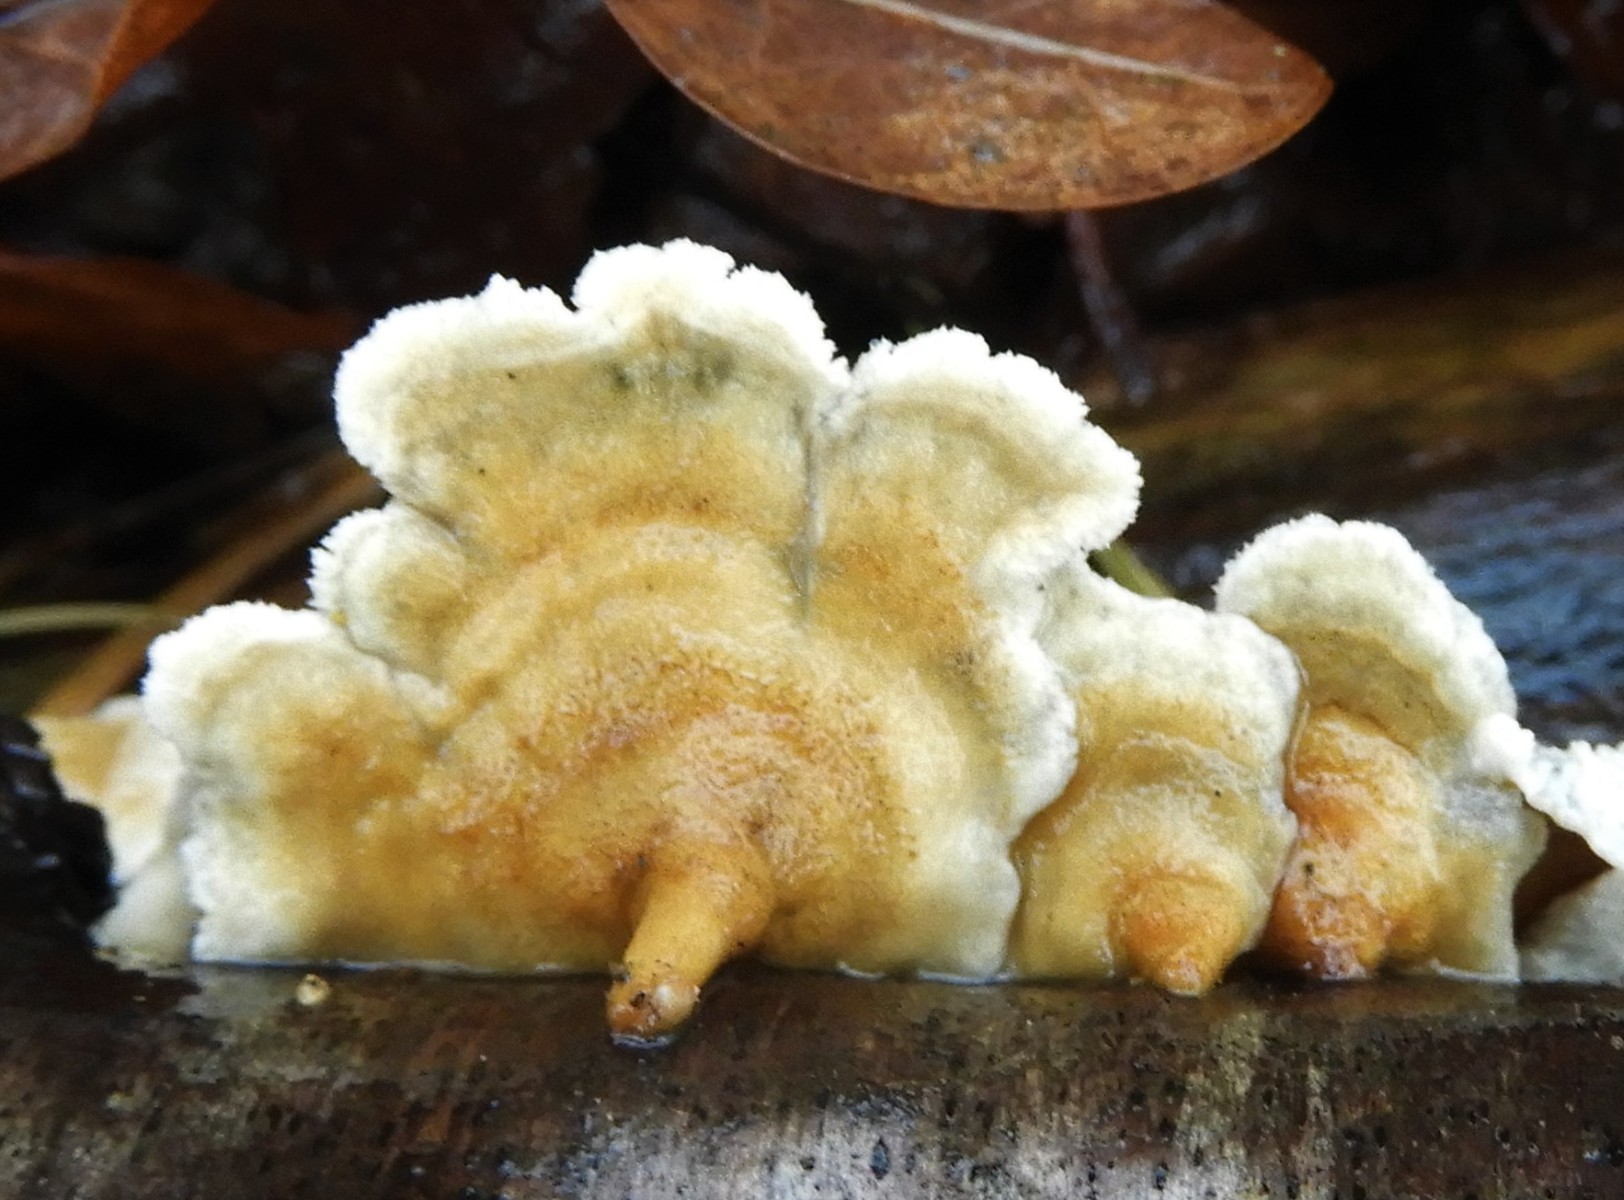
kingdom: Fungi
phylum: Basidiomycota
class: Agaricomycetes
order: Amylocorticiales
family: Amylocorticiaceae
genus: Plicaturopsis
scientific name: Plicaturopsis crispa
